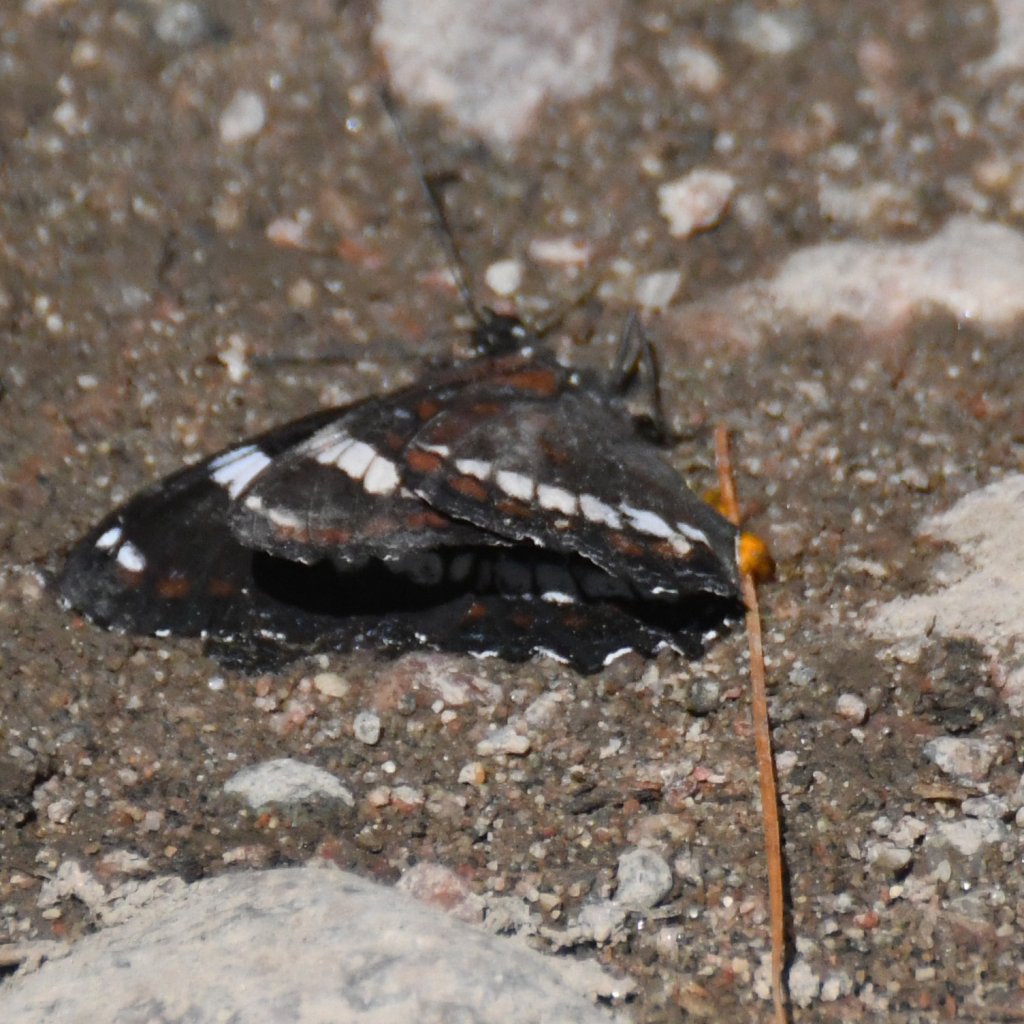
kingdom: Animalia
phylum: Arthropoda
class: Insecta
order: Lepidoptera
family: Nymphalidae
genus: Limenitis
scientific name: Limenitis arthemis
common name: Red-spotted Admiral
